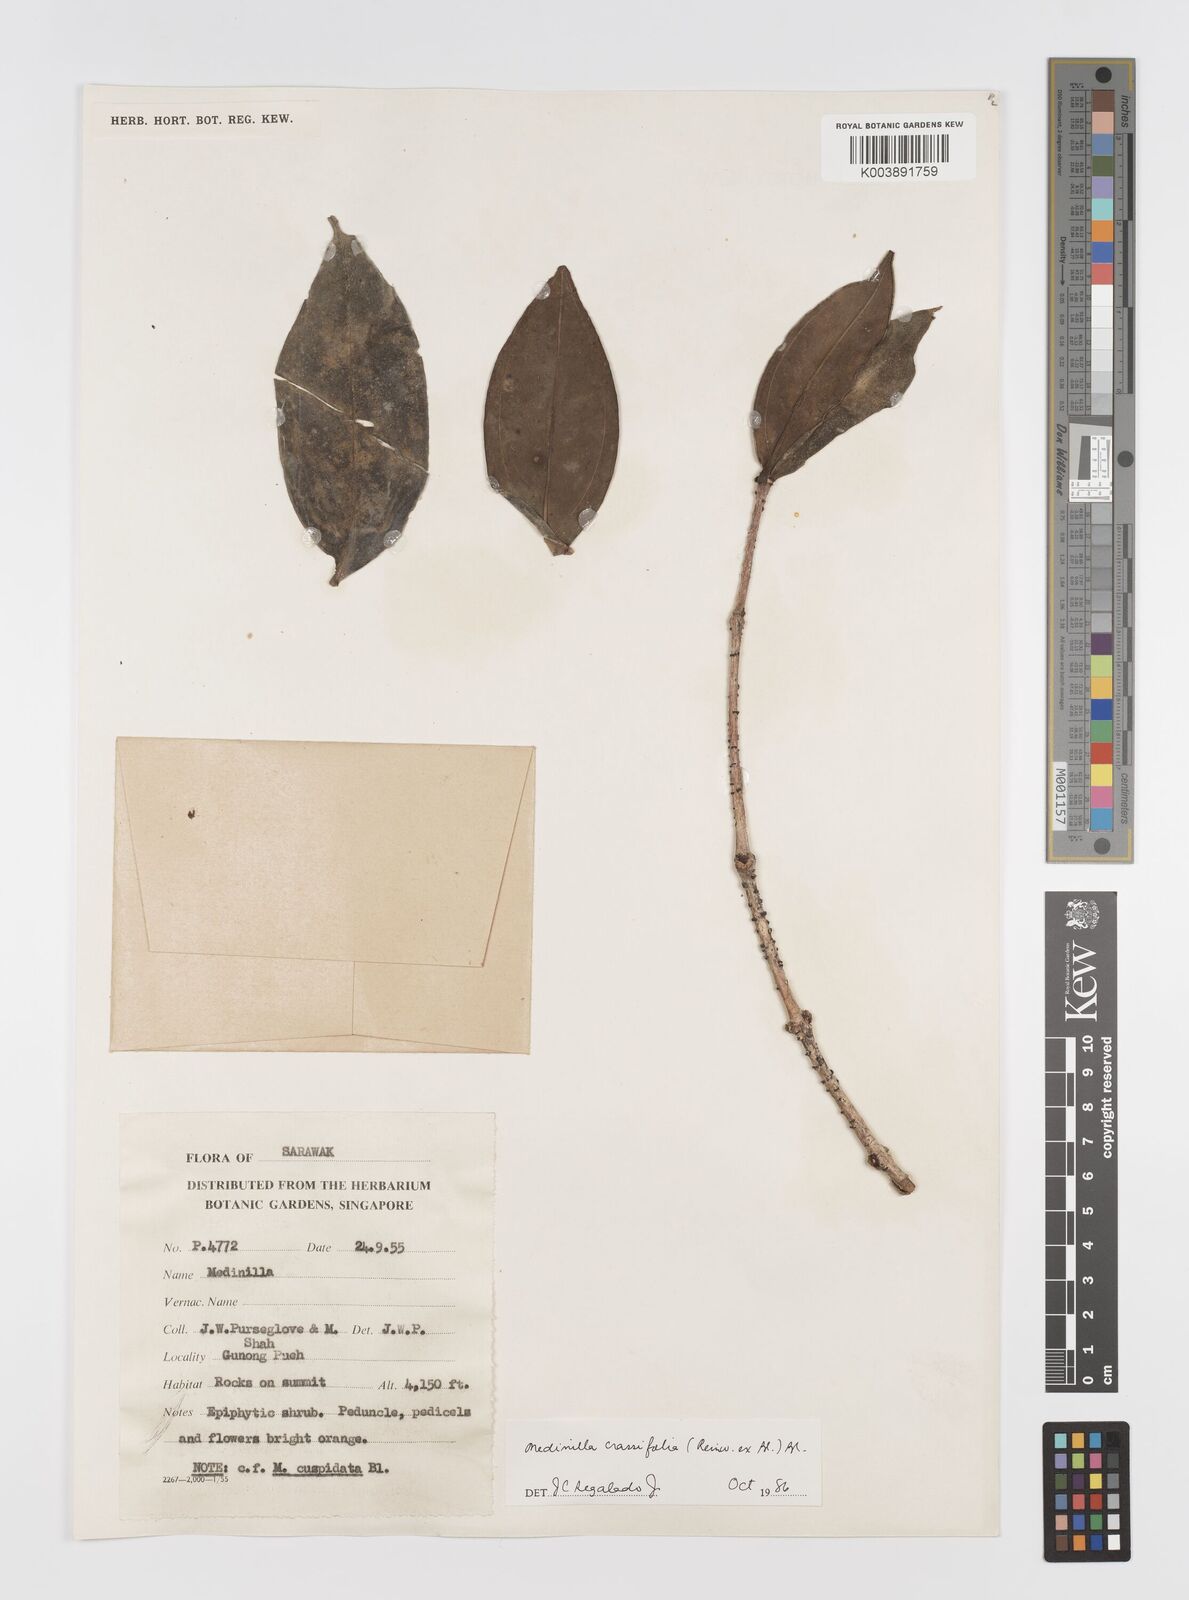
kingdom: Plantae
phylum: Tracheophyta
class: Magnoliopsida
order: Myrtales
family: Melastomataceae
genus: Medinilla
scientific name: Medinilla crassifolia
